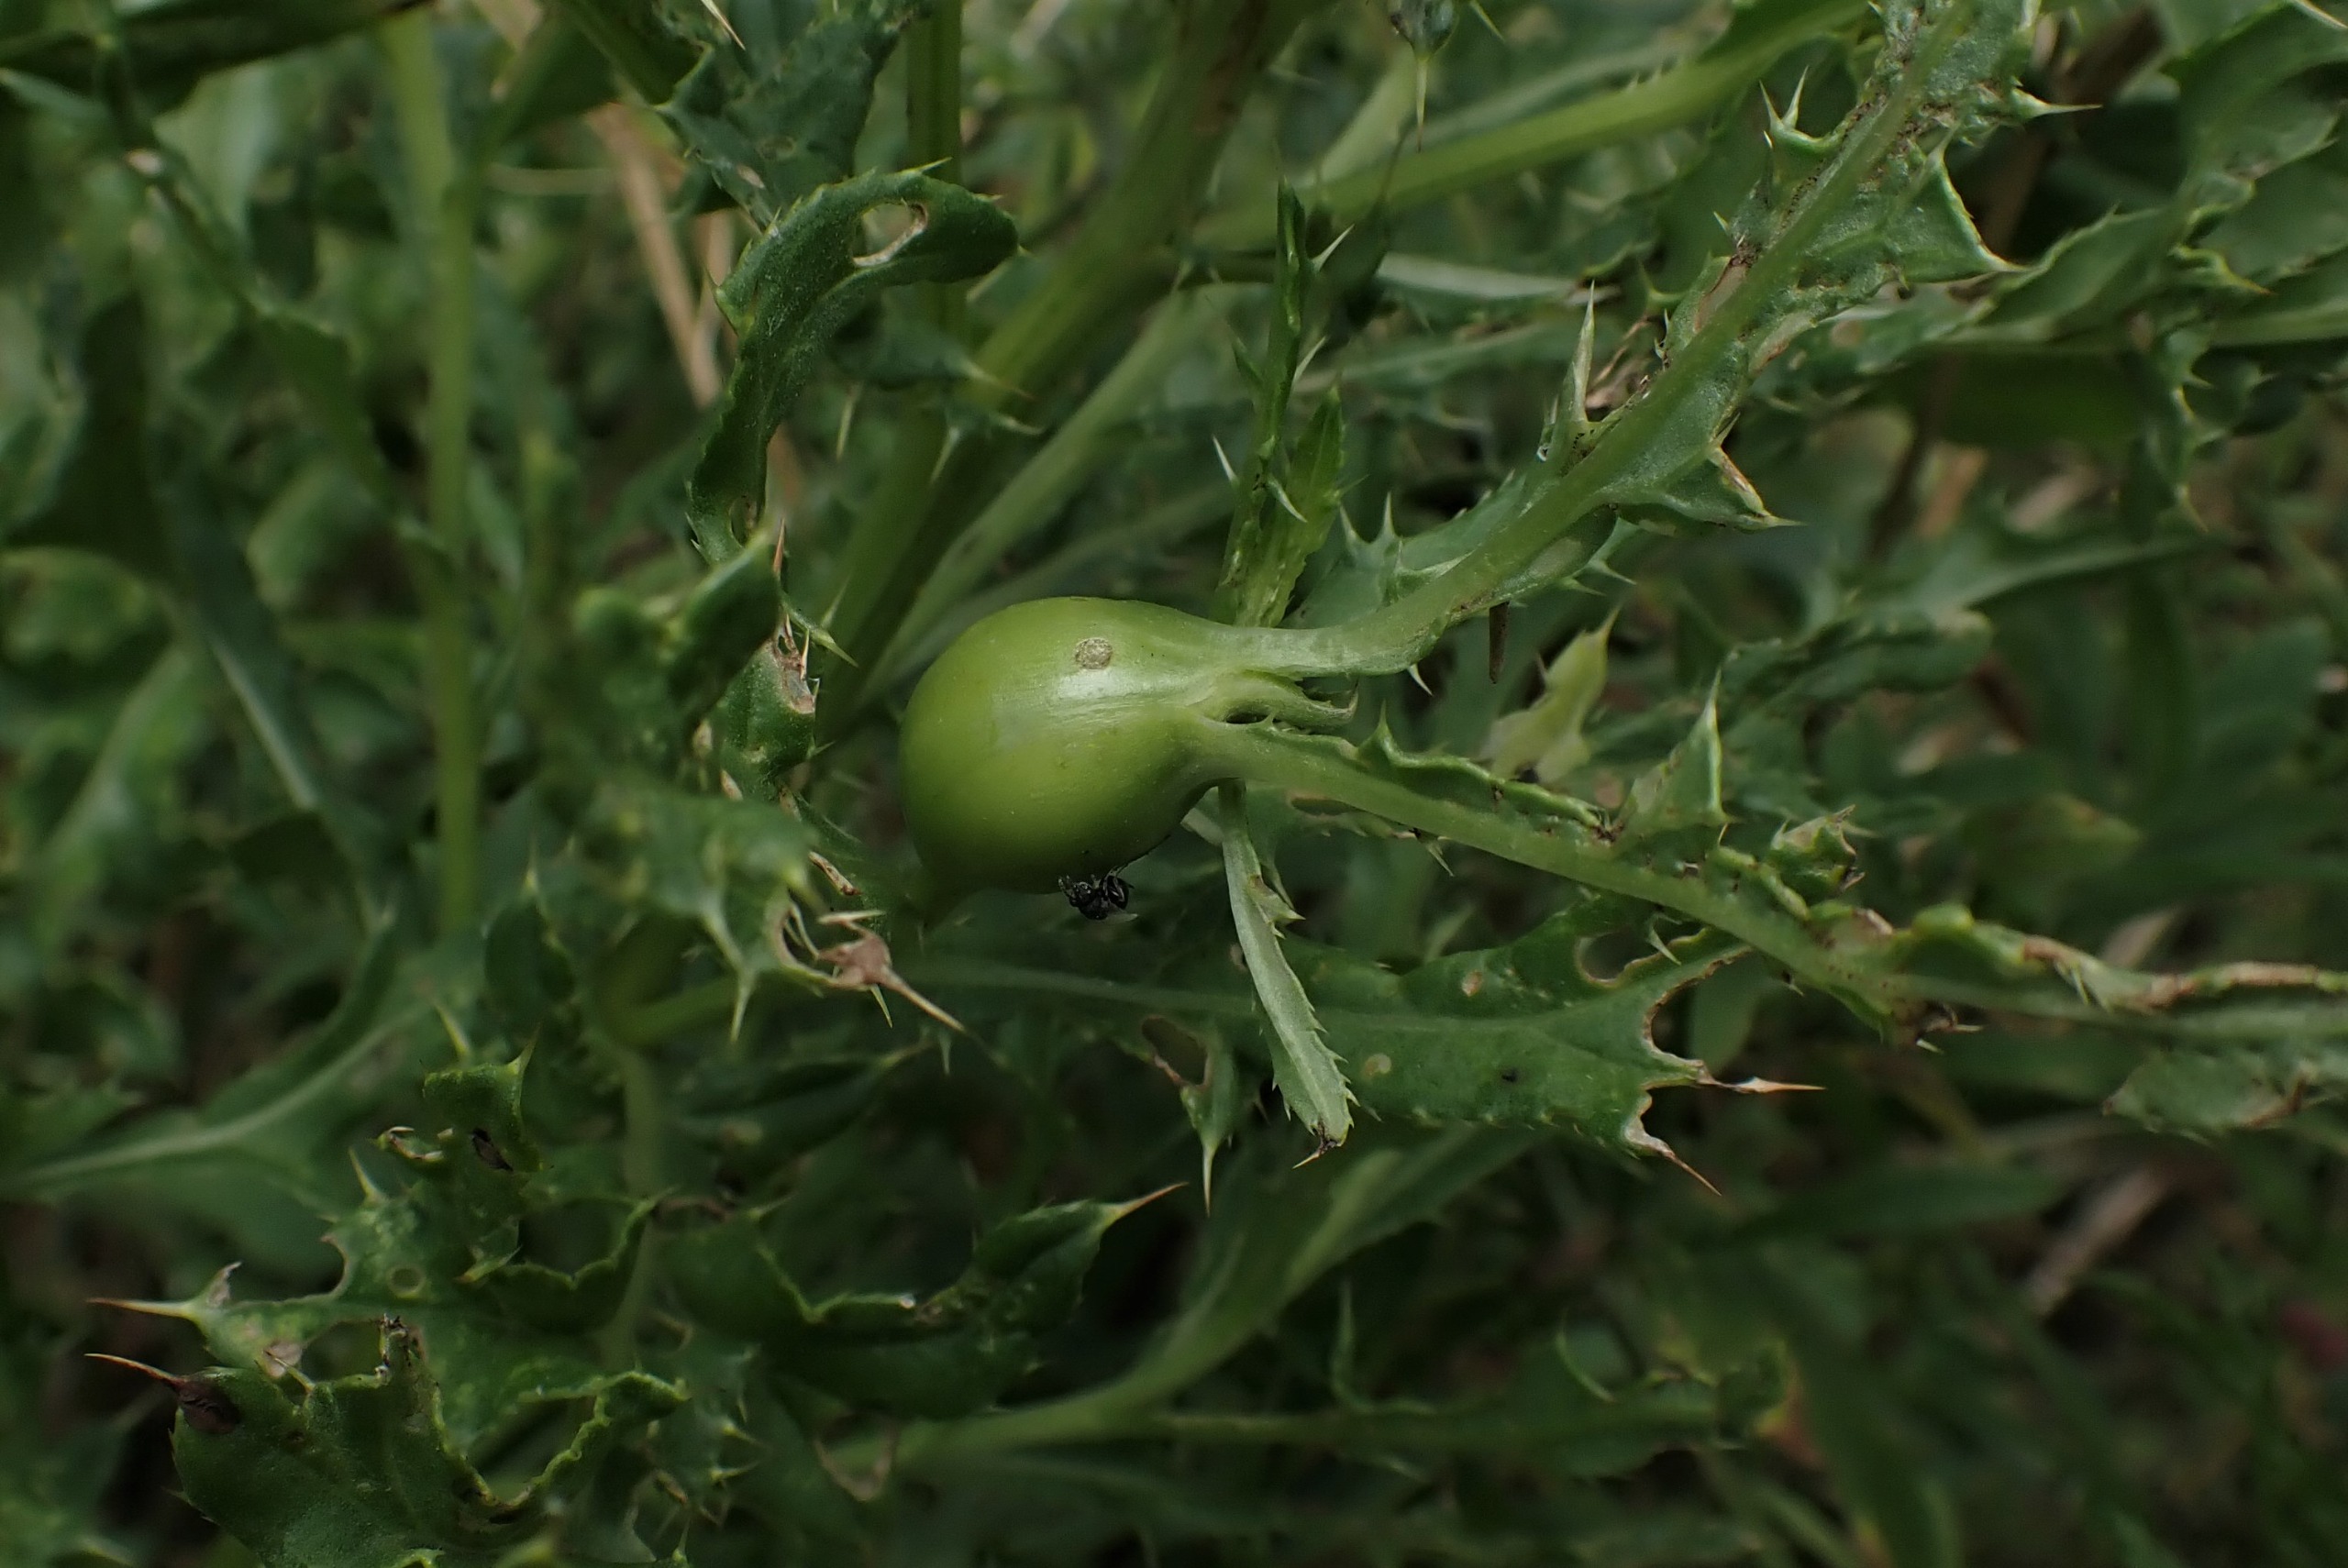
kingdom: Animalia
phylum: Arthropoda
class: Insecta
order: Diptera
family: Tephritidae
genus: Urophora
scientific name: Urophora cardui
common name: Tidselbåndflue
